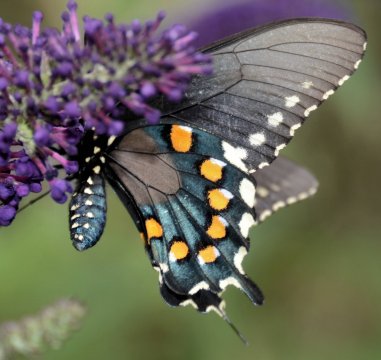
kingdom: Animalia
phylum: Arthropoda
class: Insecta
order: Lepidoptera
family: Papilionidae
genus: Battus
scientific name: Battus philenor
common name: Pipevine Swallowtail
